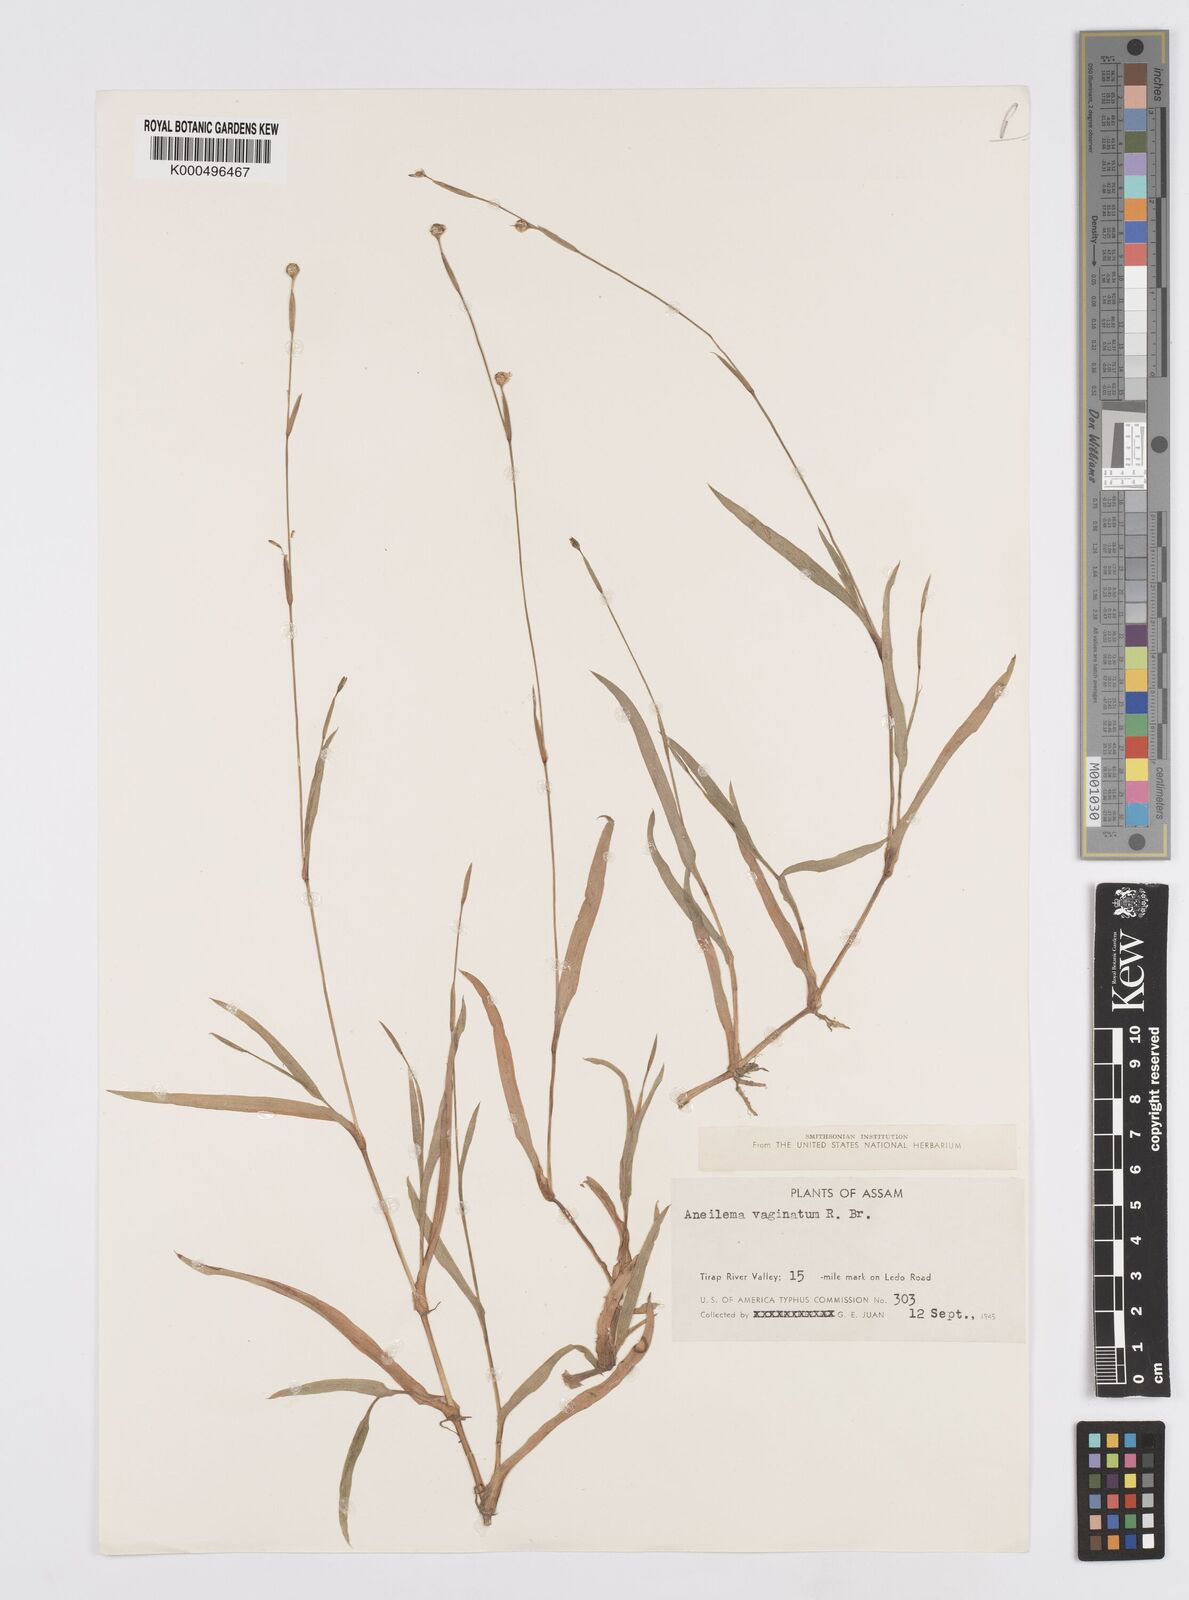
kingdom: Plantae
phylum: Tracheophyta
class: Liliopsida
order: Commelinales
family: Commelinaceae
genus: Murdannia
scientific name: Murdannia
